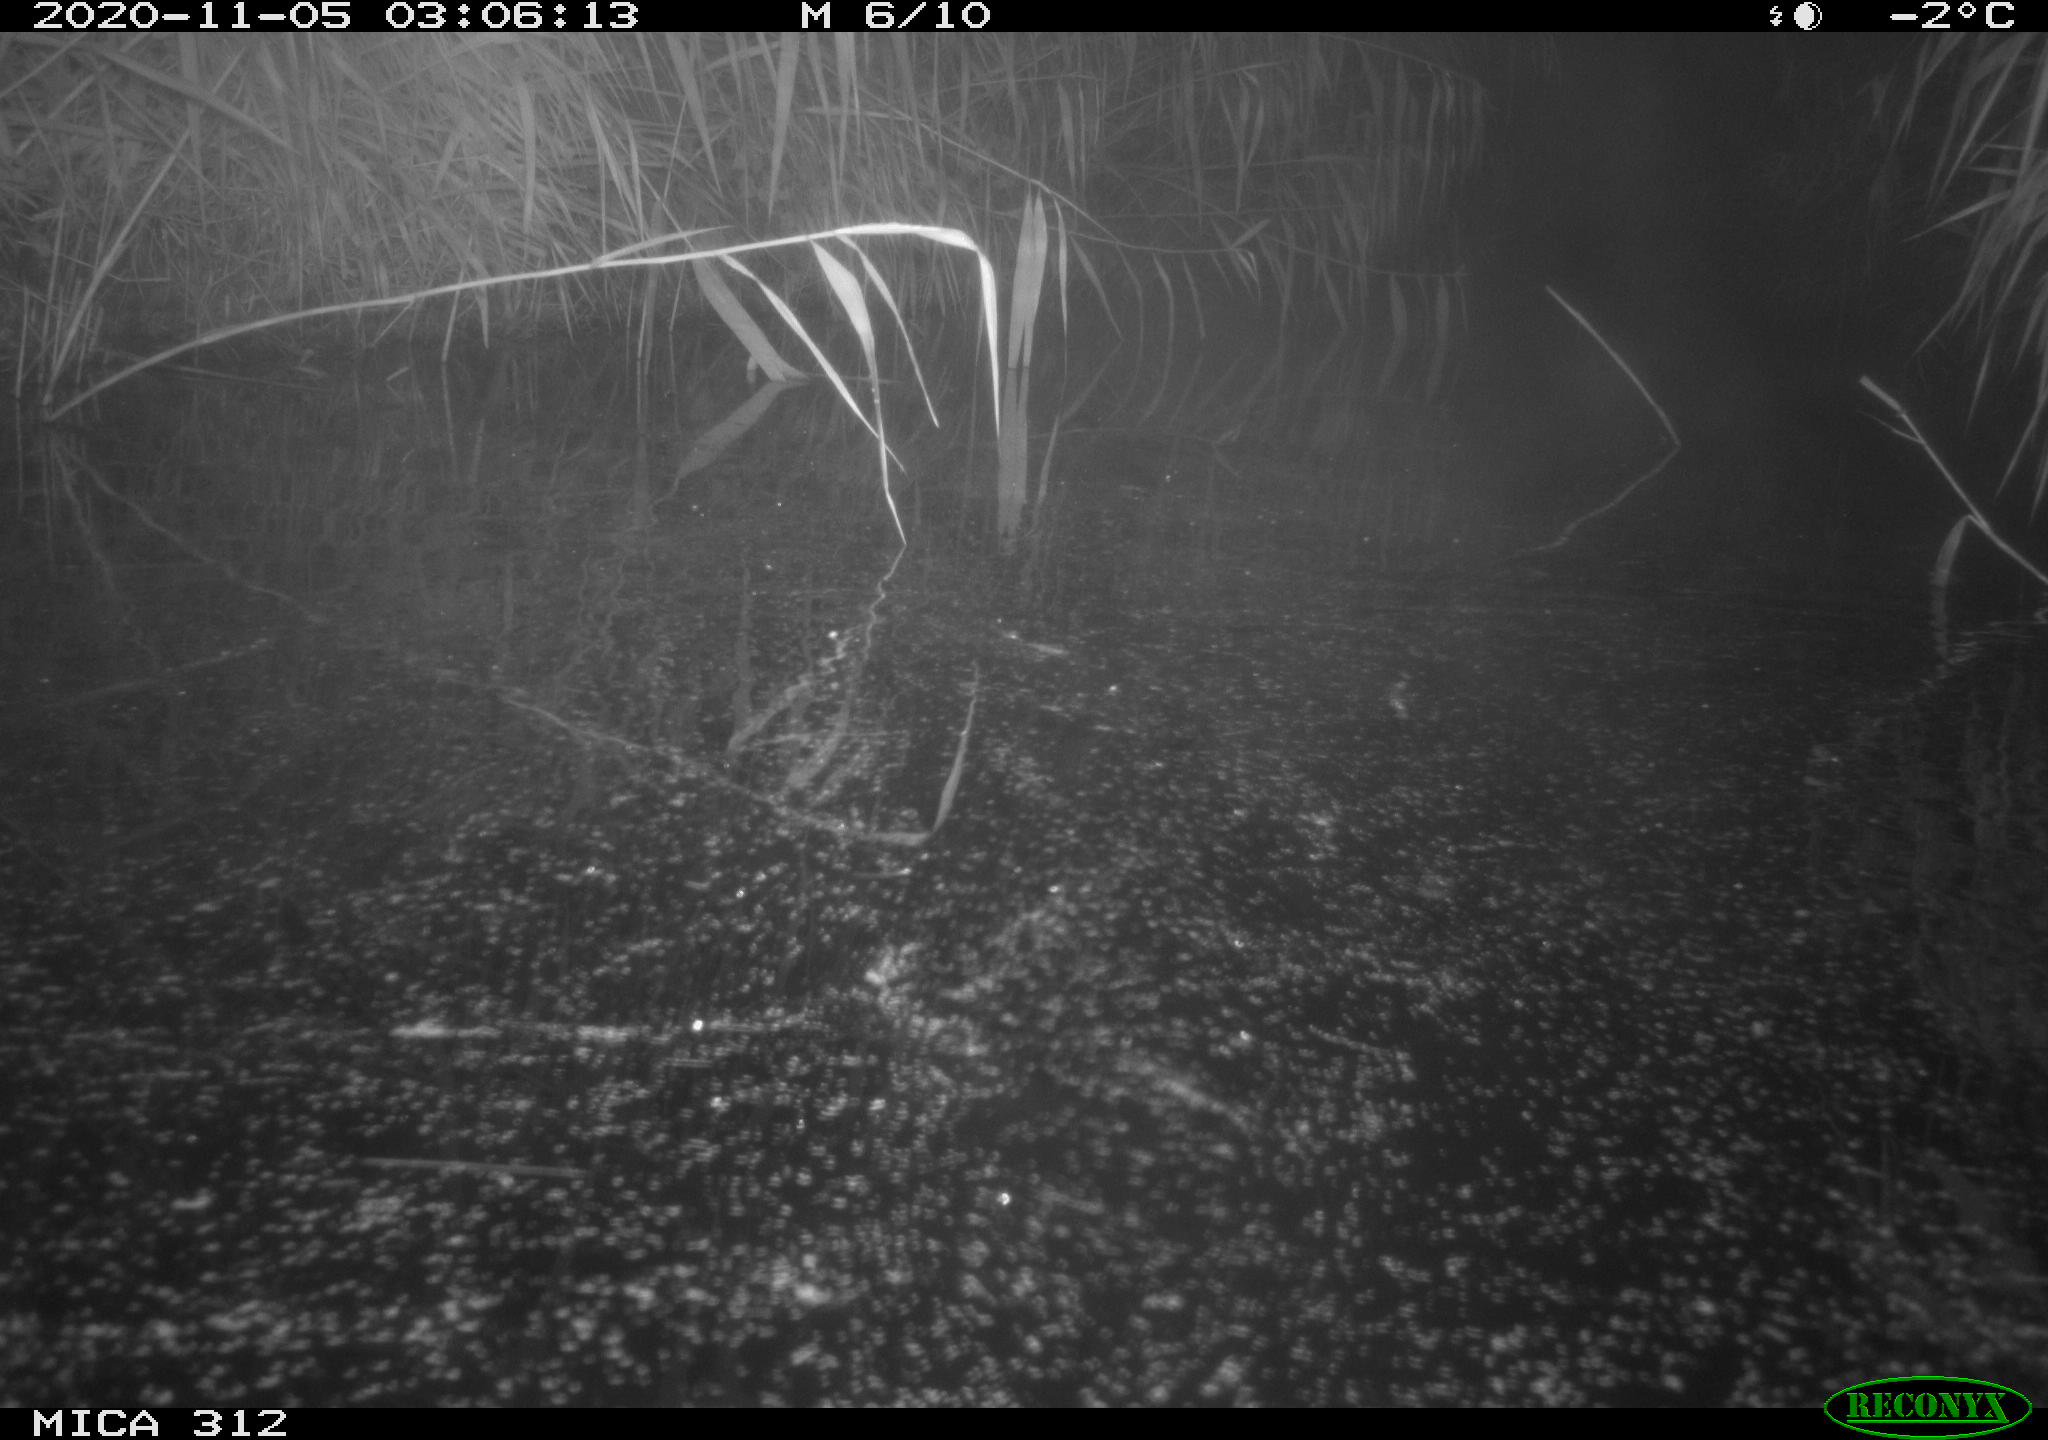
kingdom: Animalia
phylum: Chordata
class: Mammalia
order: Rodentia
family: Muridae
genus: Rattus
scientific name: Rattus norvegicus
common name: Brown rat
